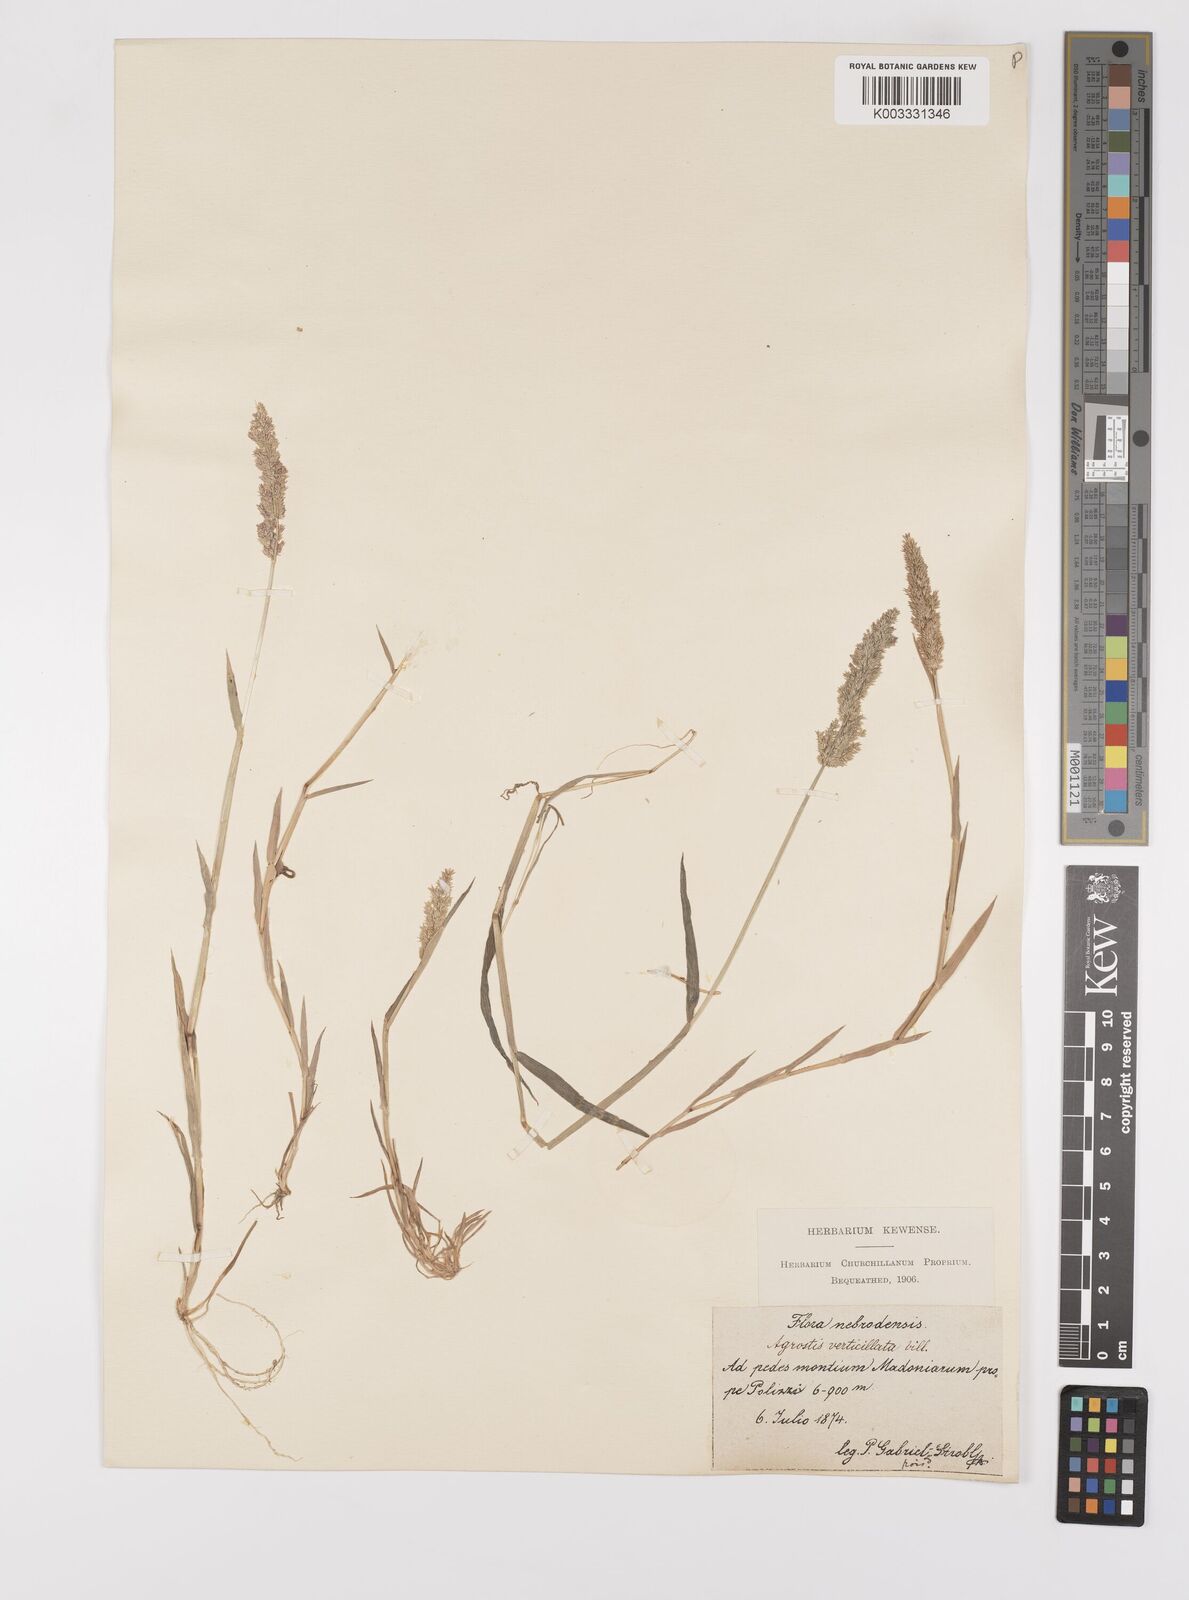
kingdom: Plantae
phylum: Tracheophyta
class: Liliopsida
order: Poales
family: Poaceae
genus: Polypogon
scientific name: Polypogon viridis
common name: Water bent
